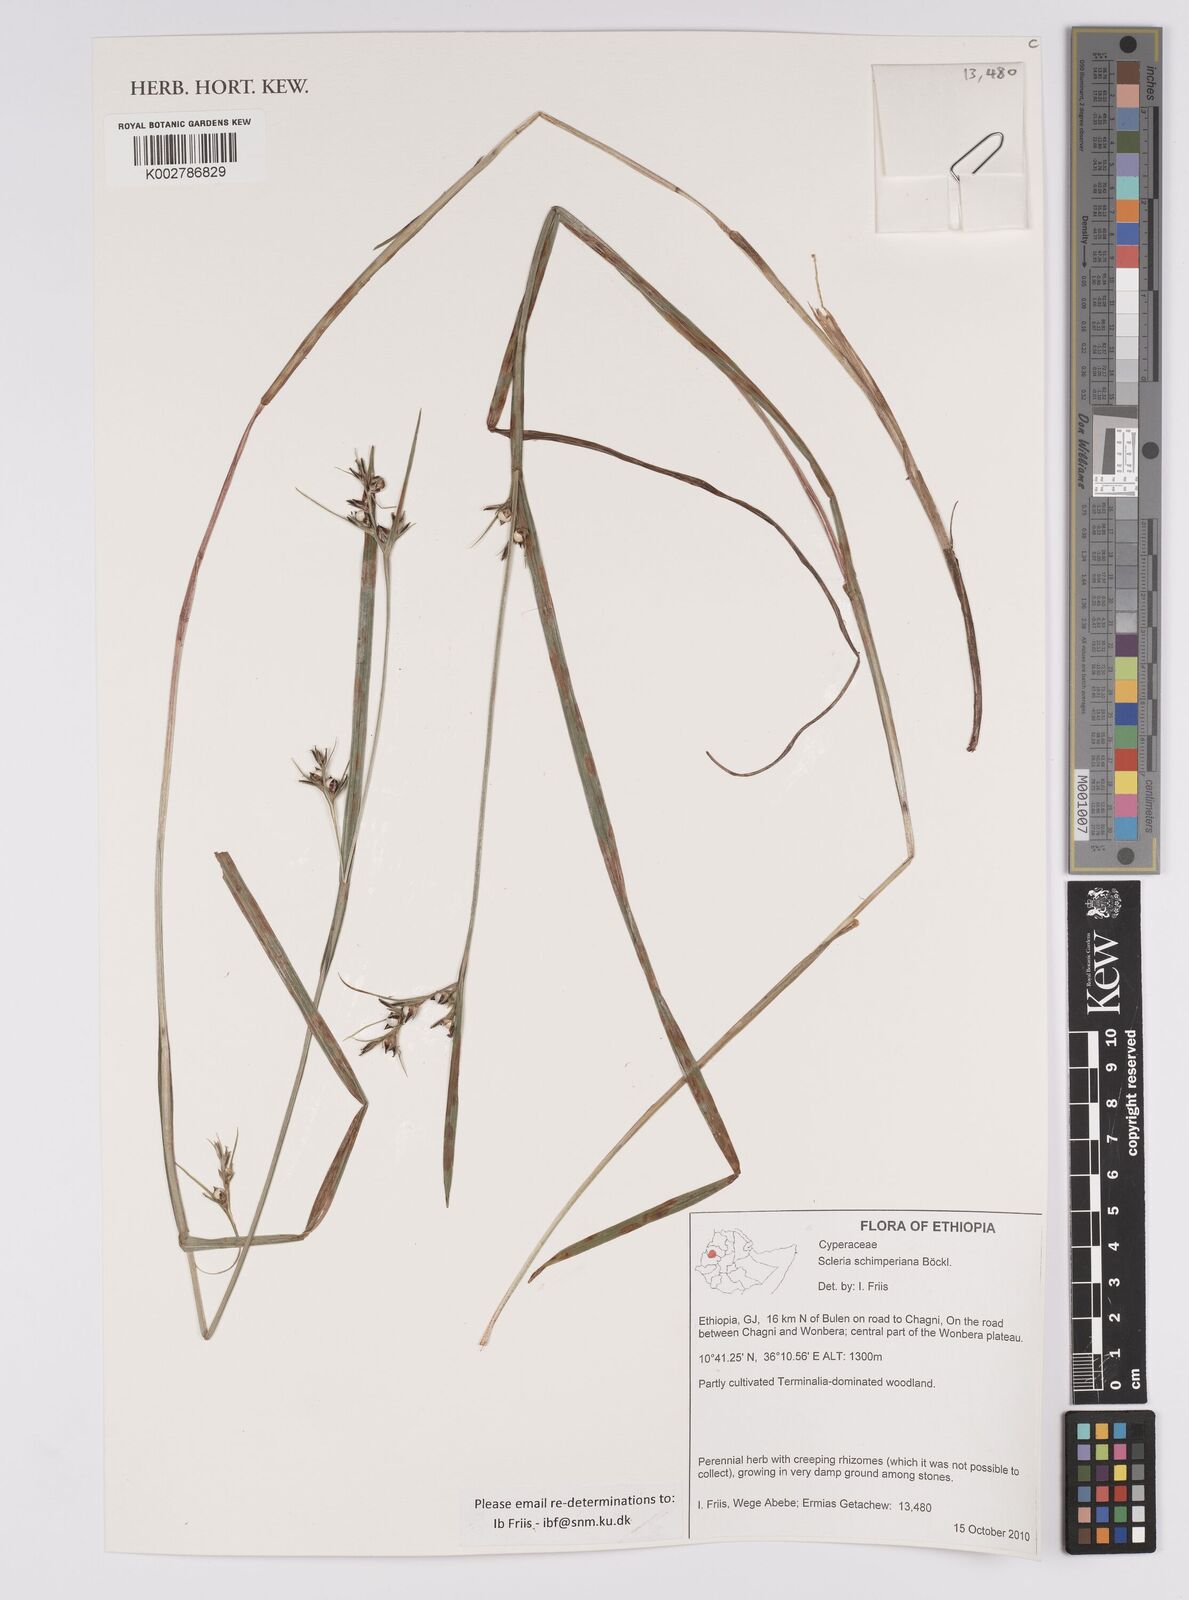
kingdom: Plantae
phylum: Tracheophyta
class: Liliopsida
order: Poales
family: Cyperaceae
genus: Scleria
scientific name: Scleria schimperiana
